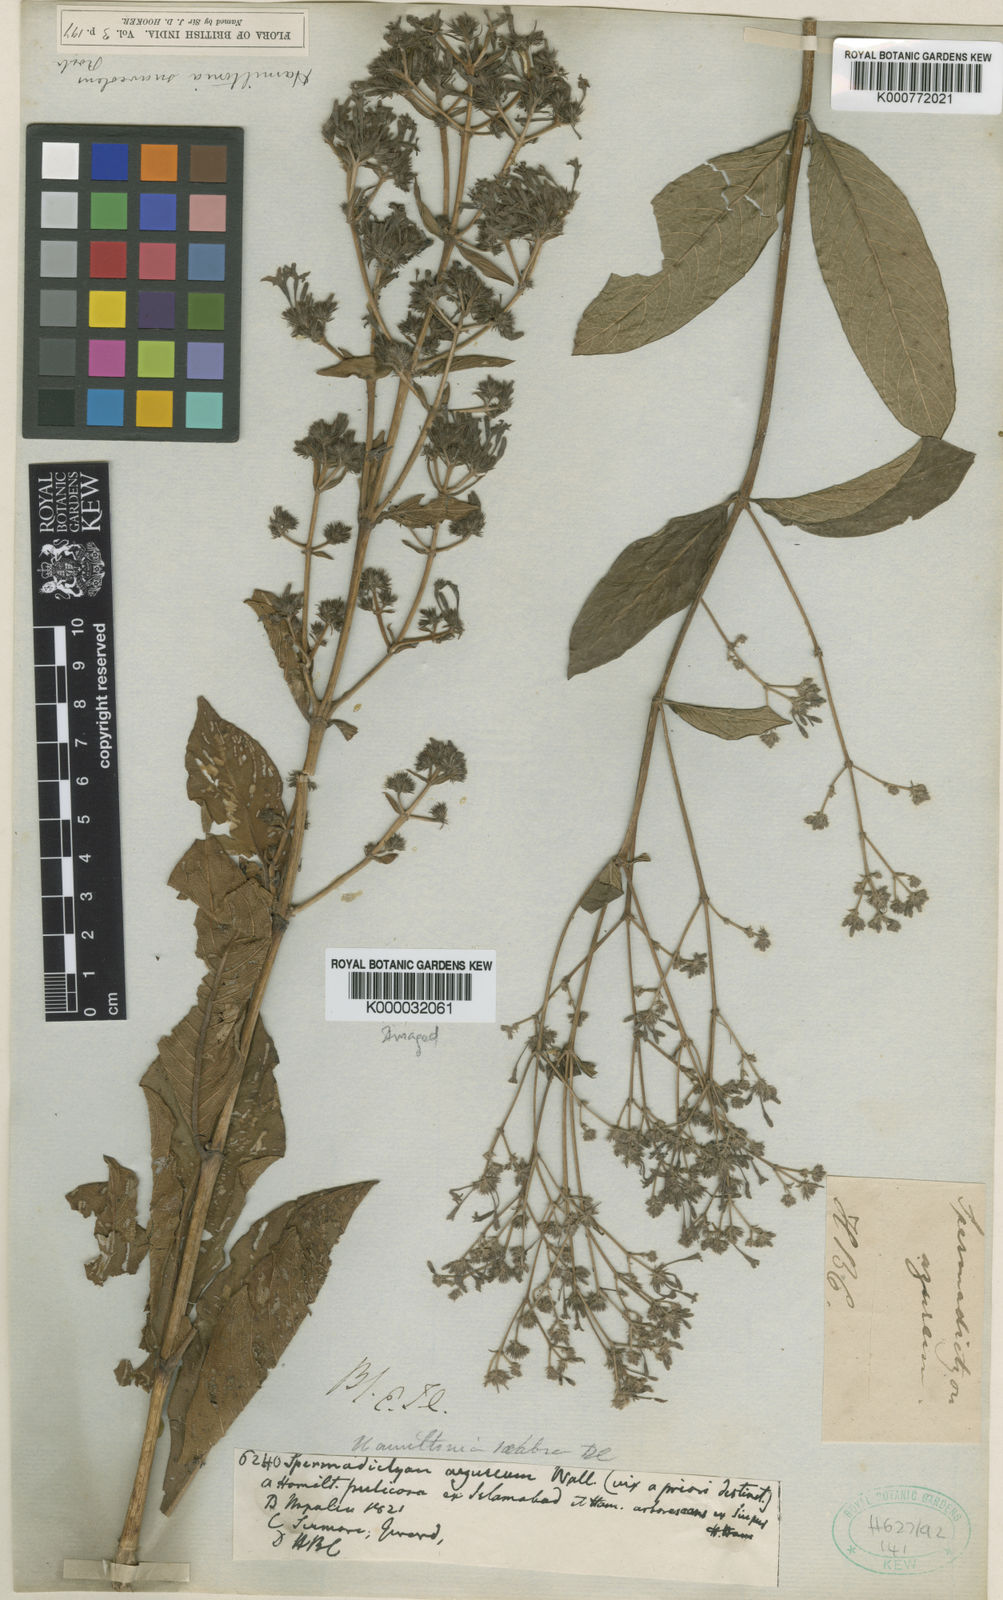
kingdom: Plantae
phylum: Tracheophyta
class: Magnoliopsida
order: Gentianales
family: Rubiaceae
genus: Spermadictyon
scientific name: Spermadictyon suaveolens
